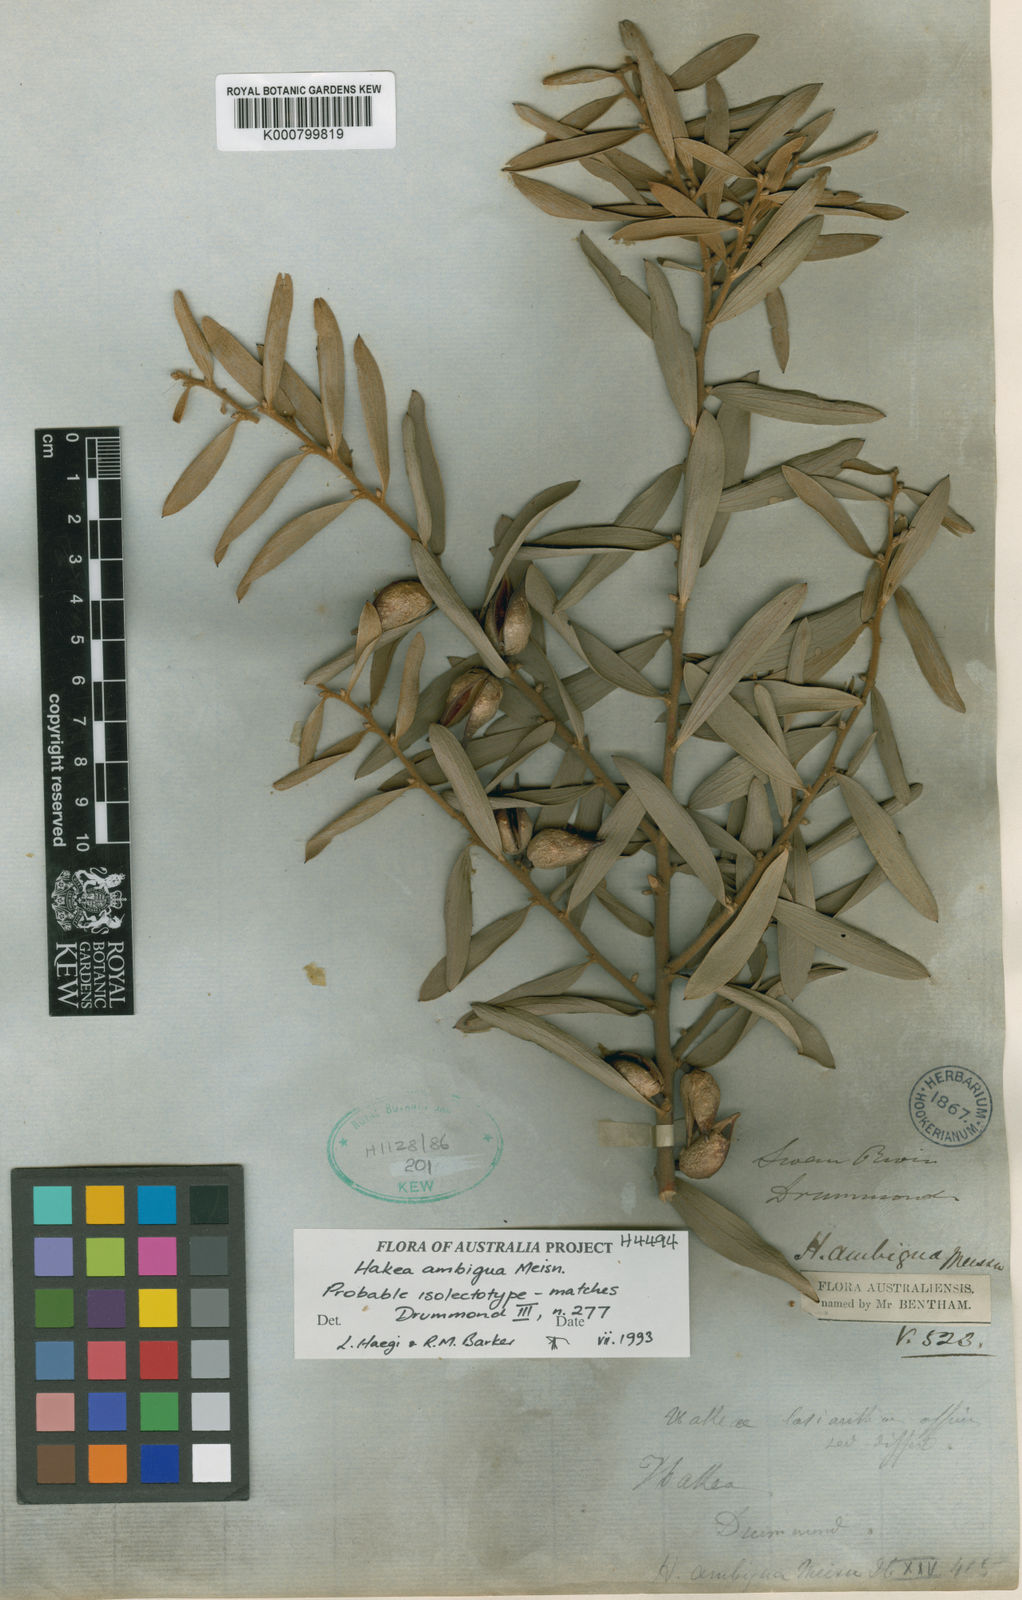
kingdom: Plantae
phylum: Tracheophyta
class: Magnoliopsida
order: Proteales
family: Proteaceae
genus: Hakea
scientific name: Hakea ambigua
